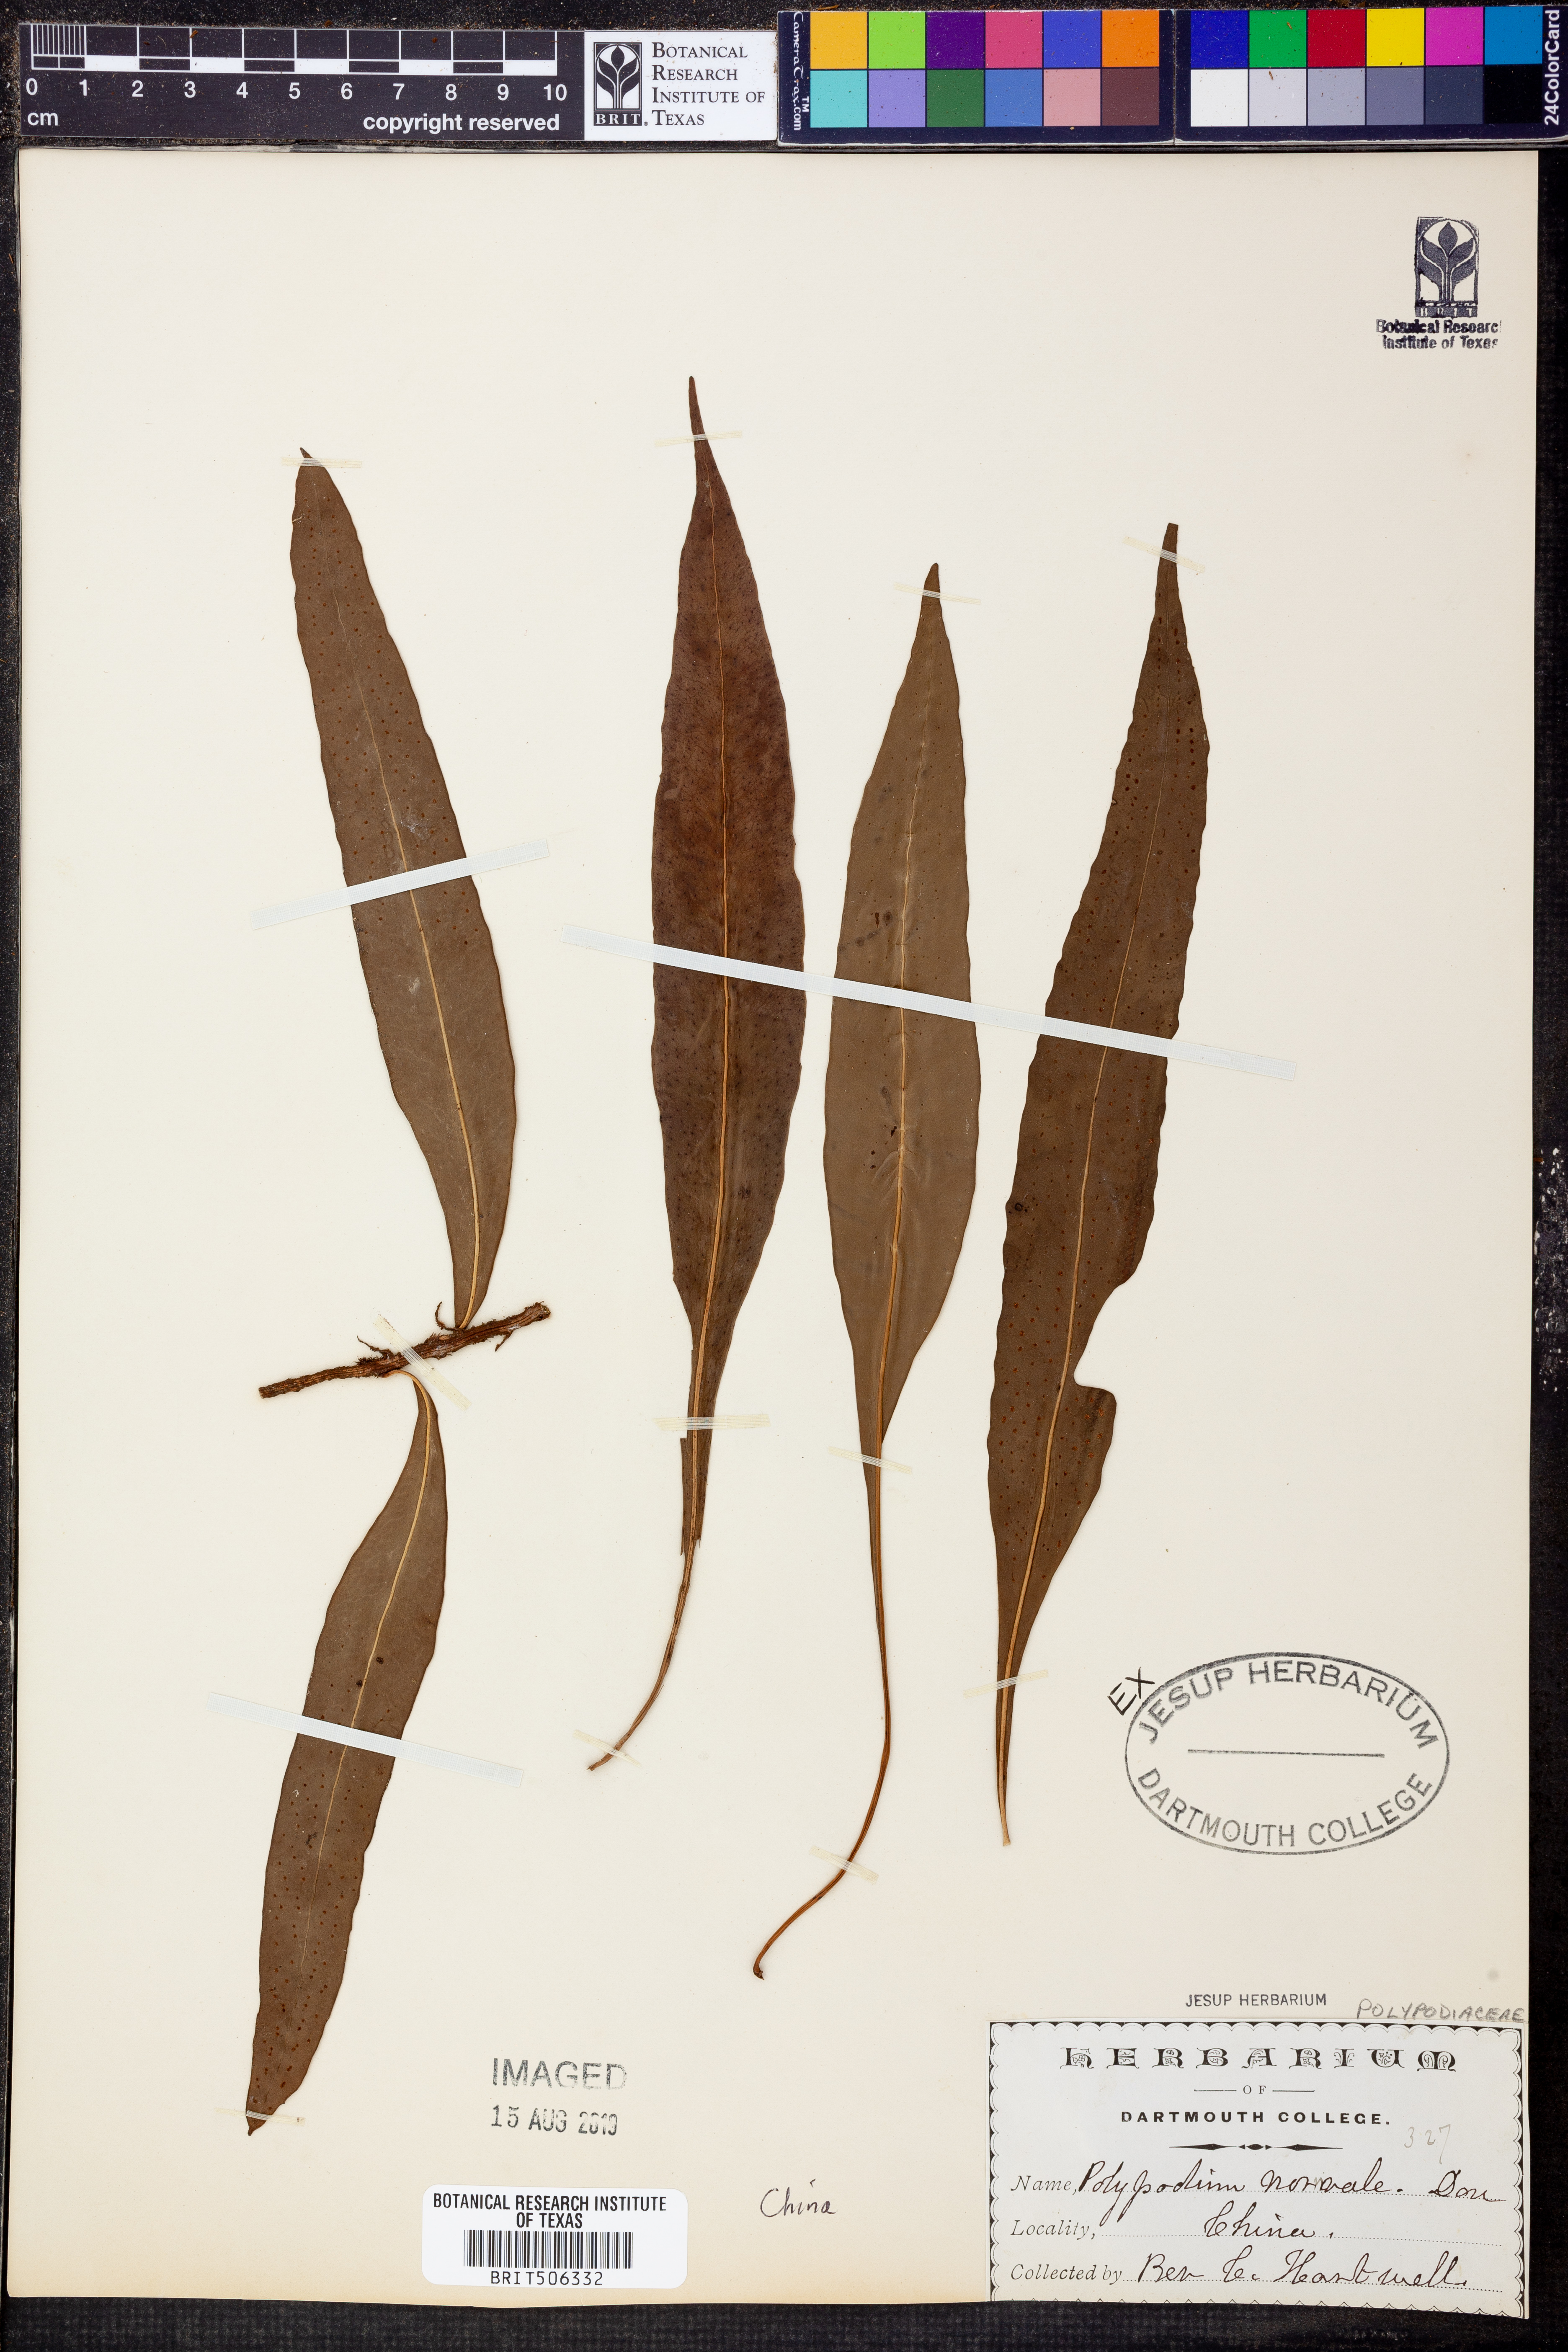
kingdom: Plantae
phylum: Tracheophyta
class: Polypodiopsida
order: Polypodiales
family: Polypodiaceae
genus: Lepisorus
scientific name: Lepisorus normalis
